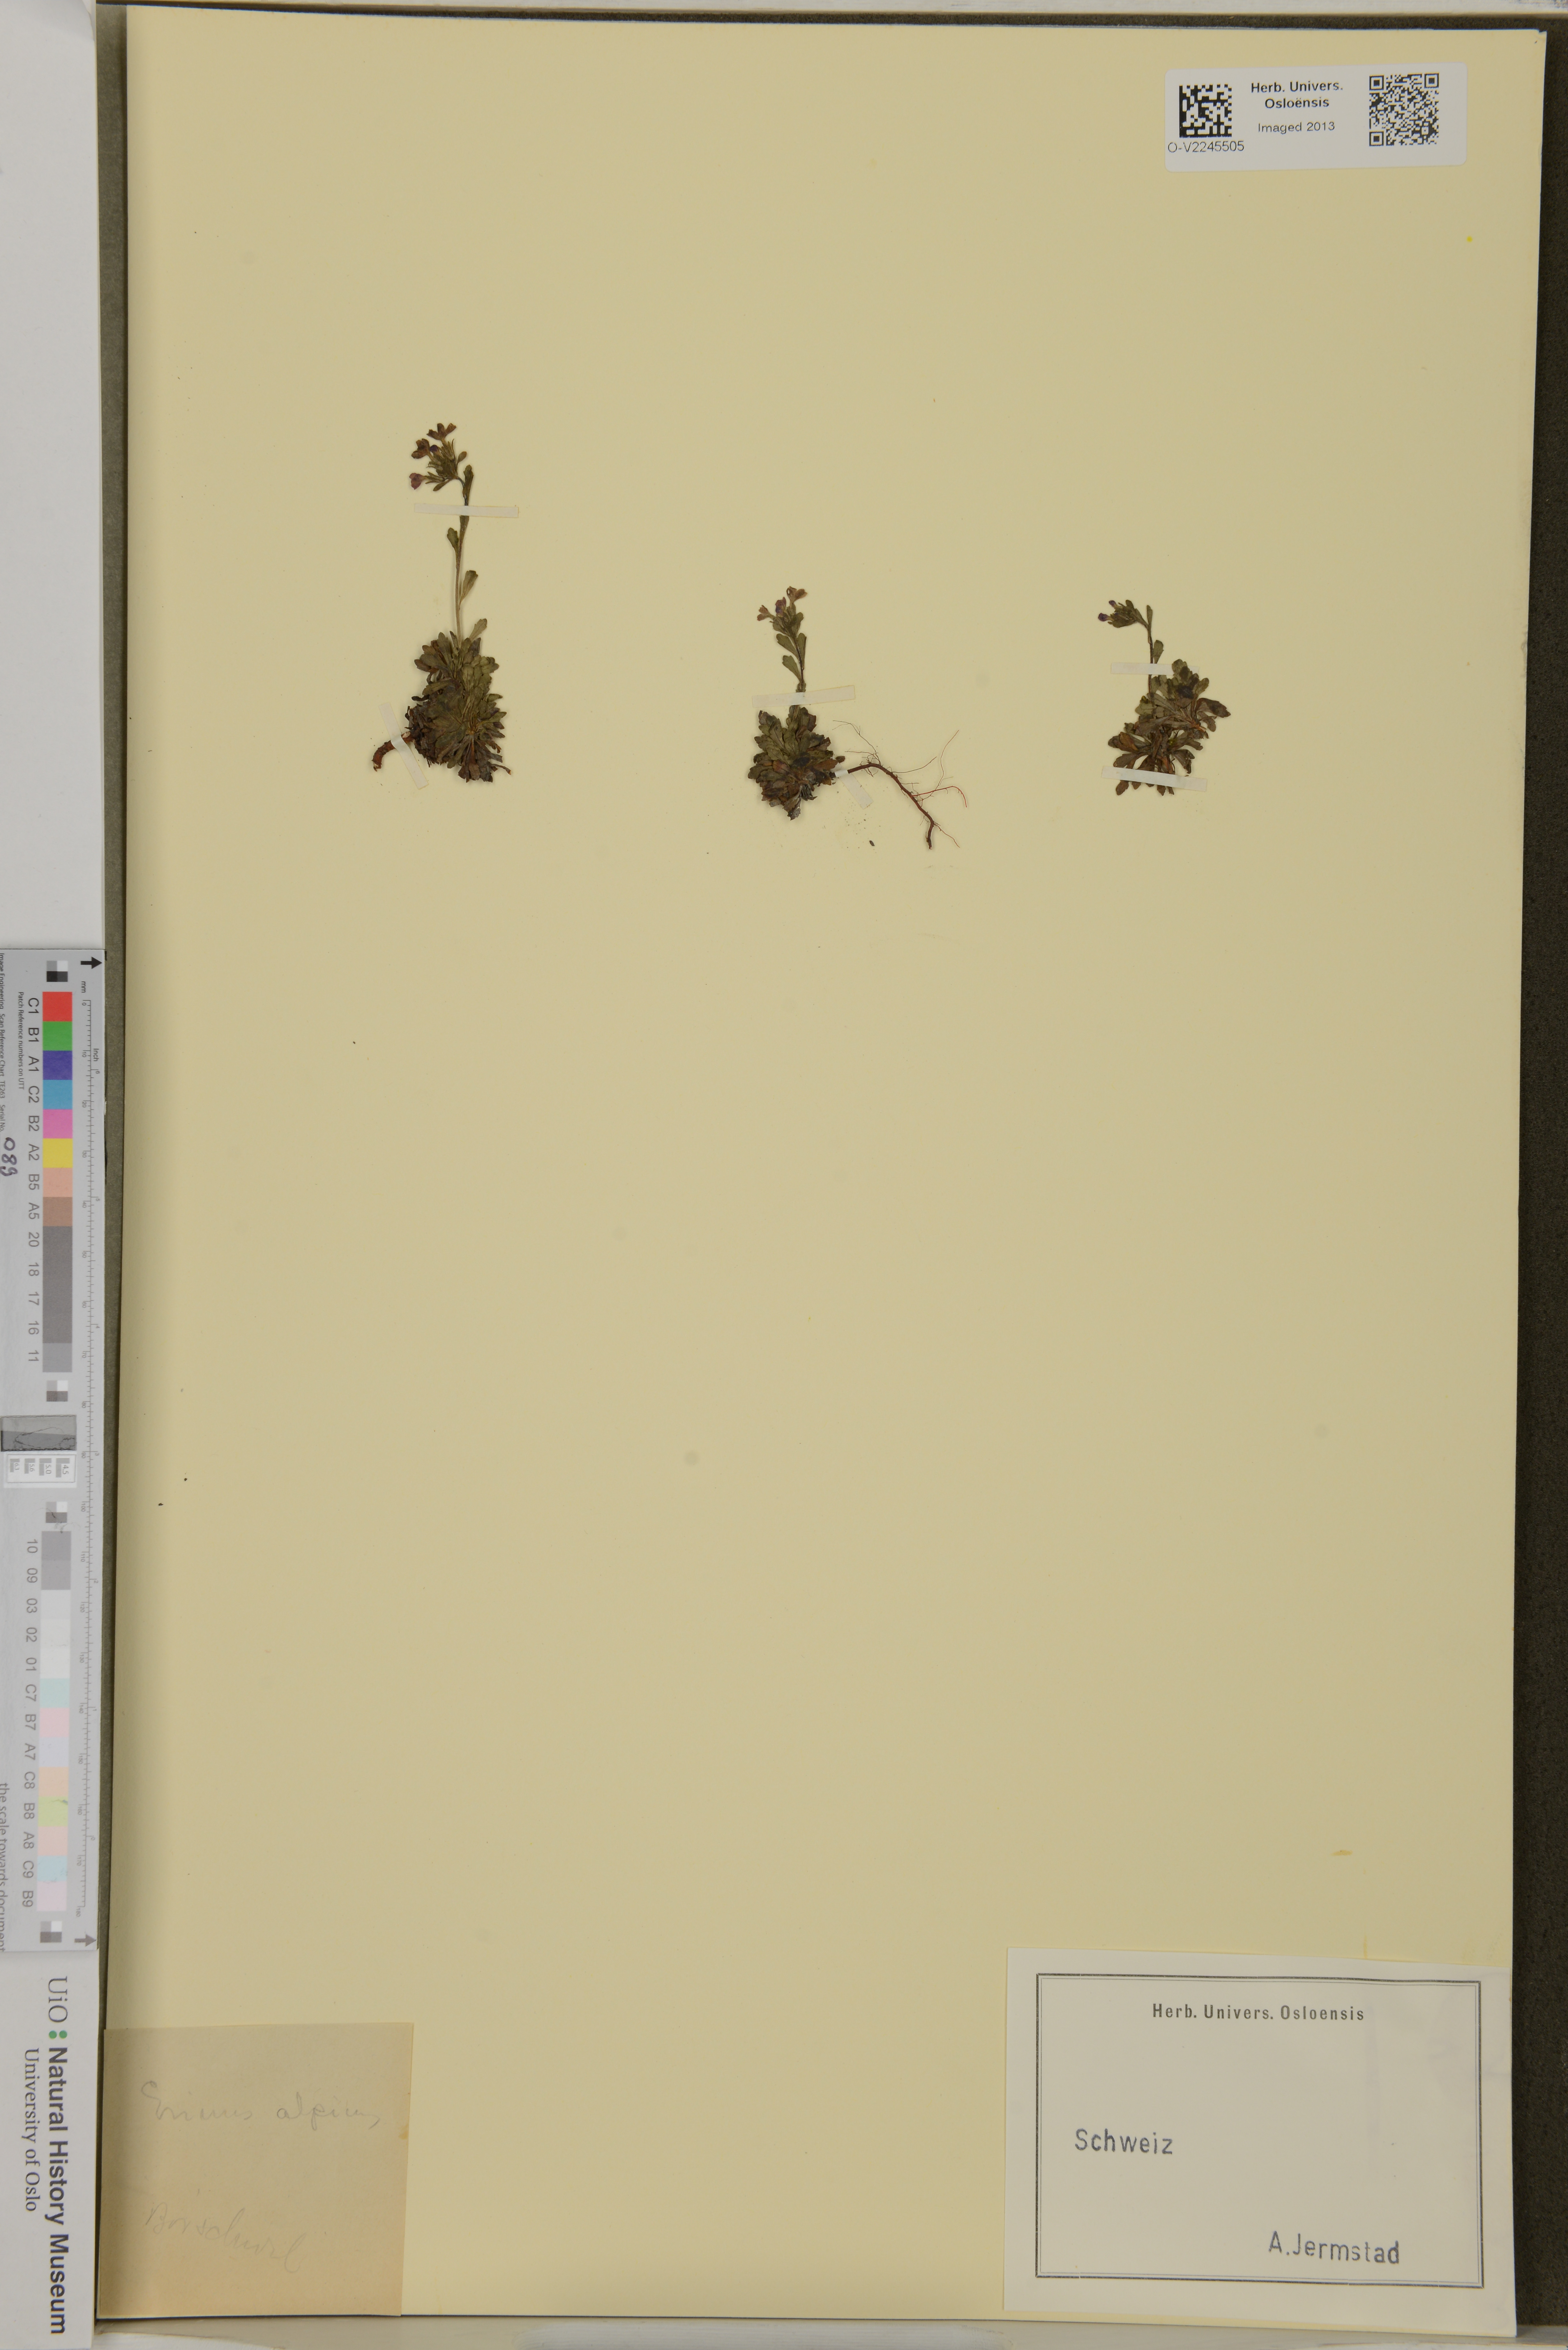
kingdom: Plantae
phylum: Tracheophyta
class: Magnoliopsida
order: Lamiales
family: Plantaginaceae
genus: Erinus
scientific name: Erinus alpinus
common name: Fairy foxglove
